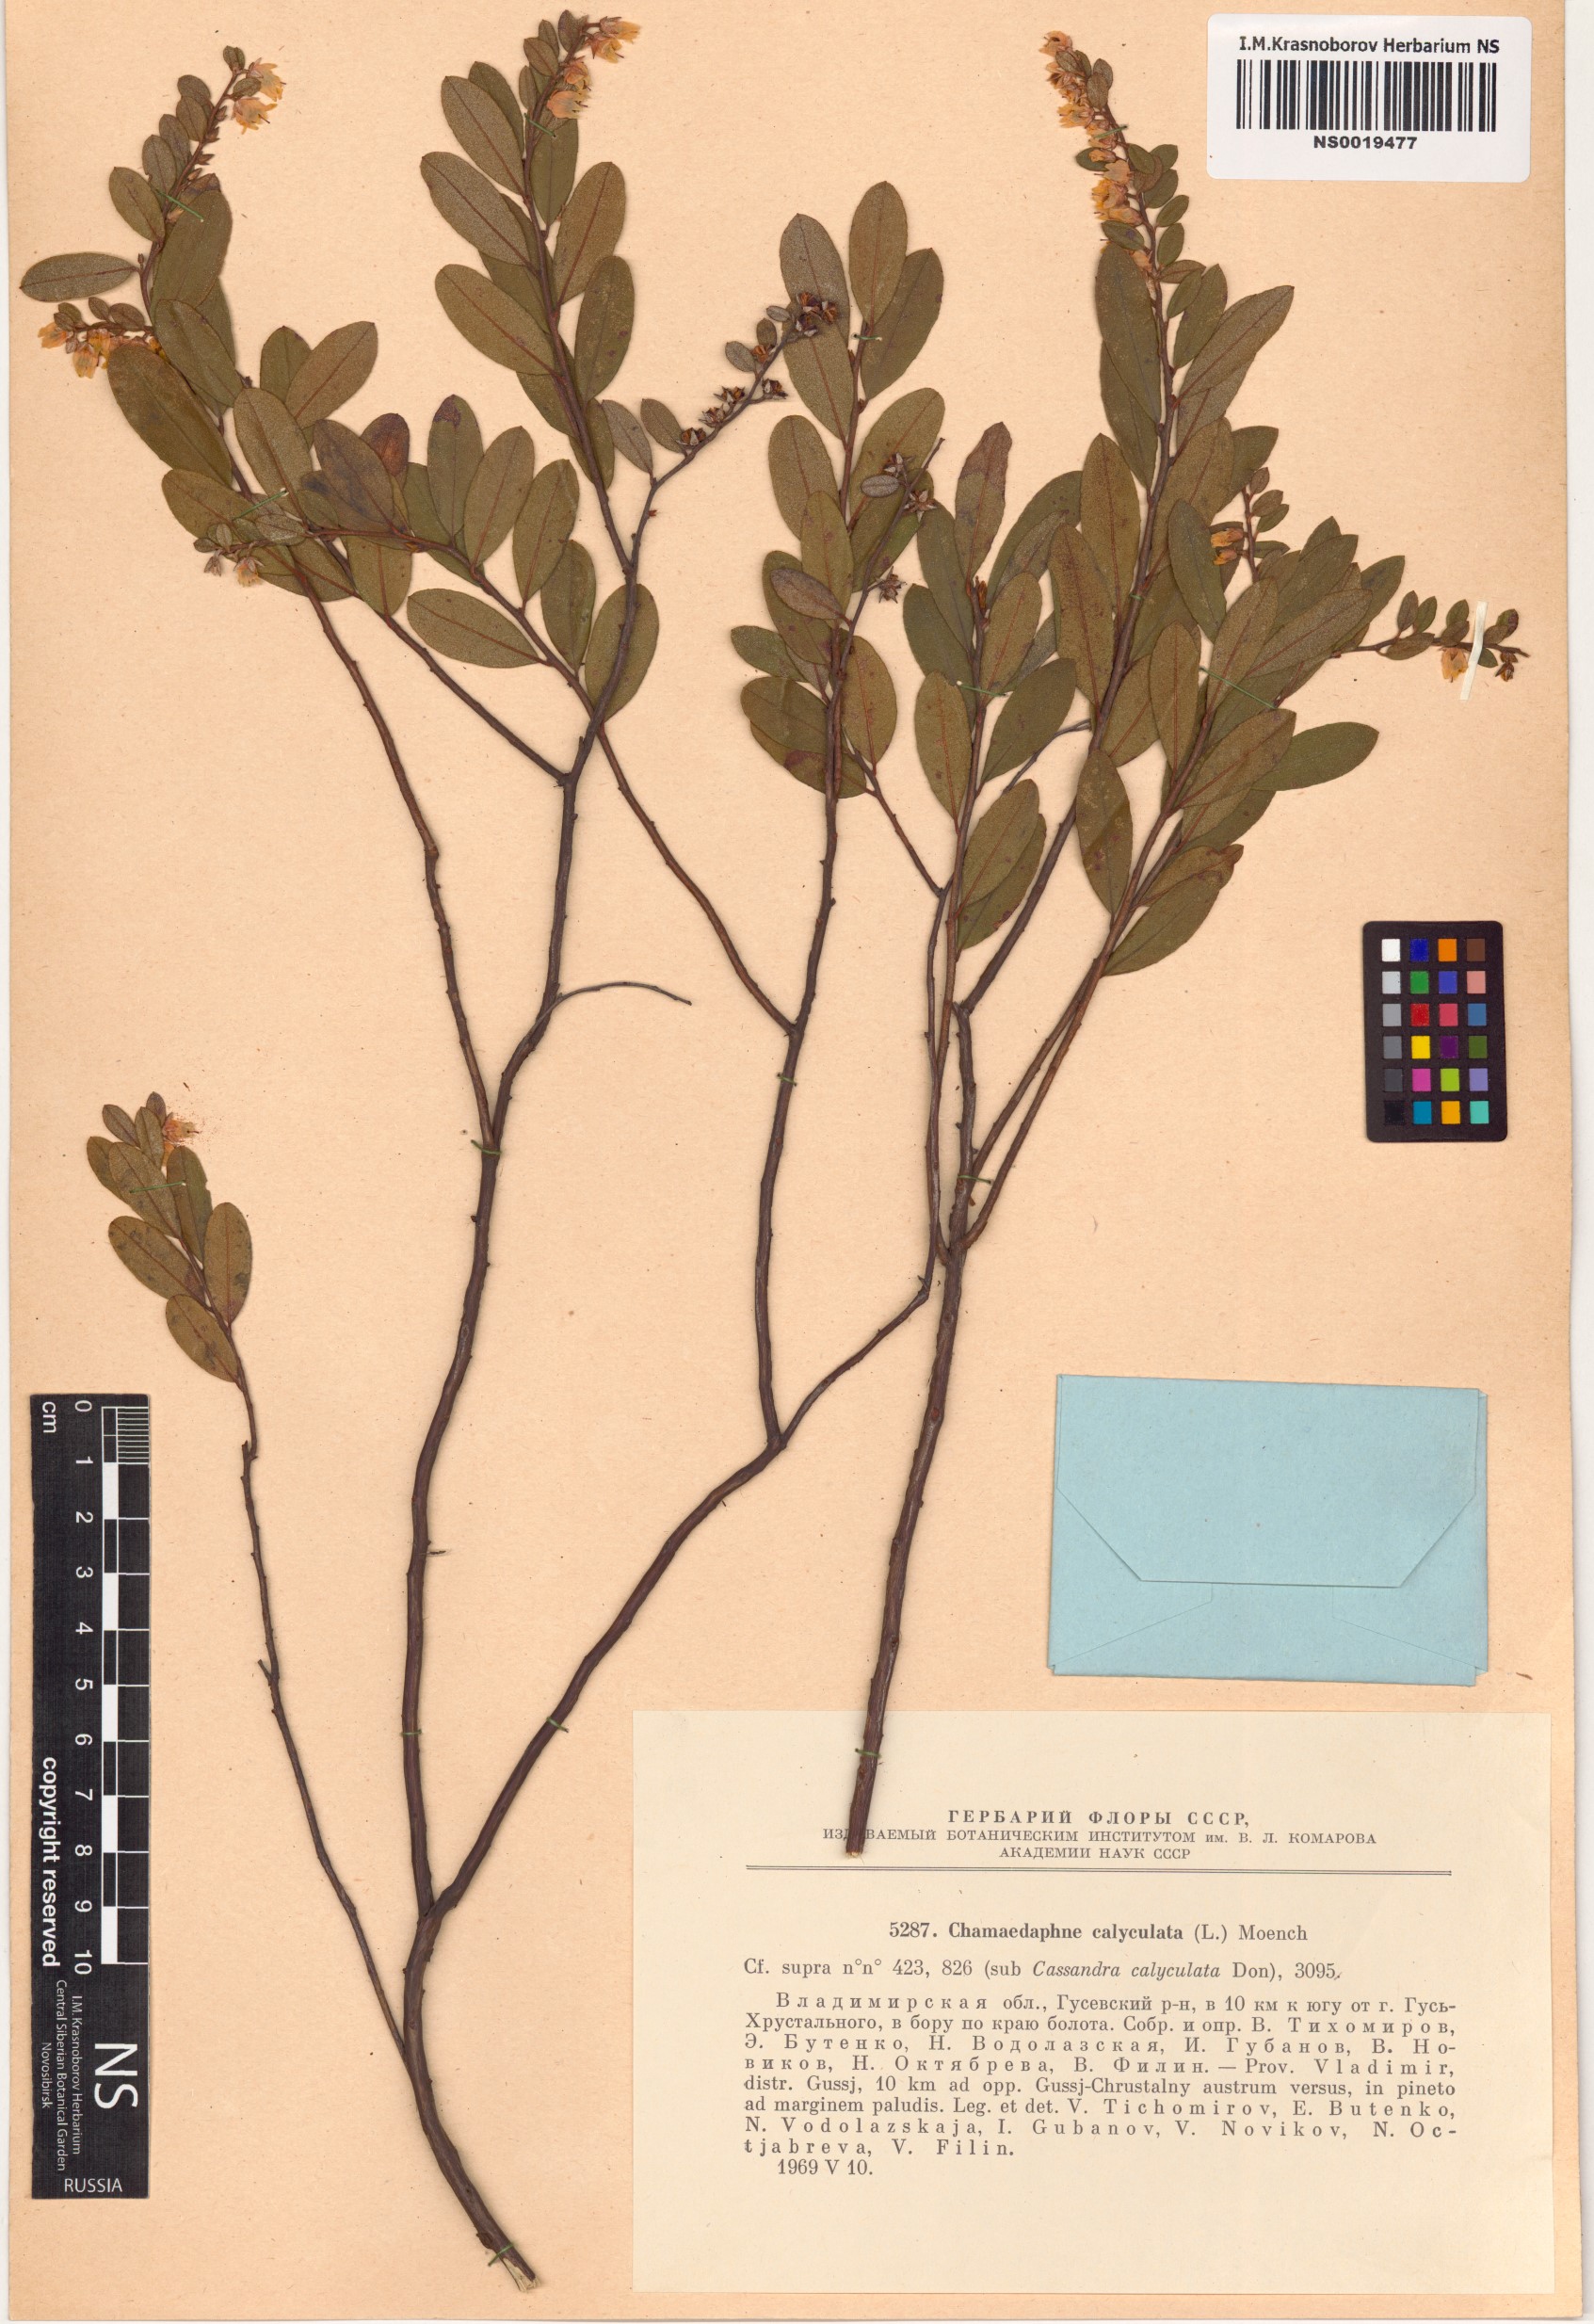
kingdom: Plantae
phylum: Tracheophyta
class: Magnoliopsida
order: Ericales
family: Ericaceae
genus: Chamaedaphne
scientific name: Chamaedaphne calyculata
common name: Leatherleaf
